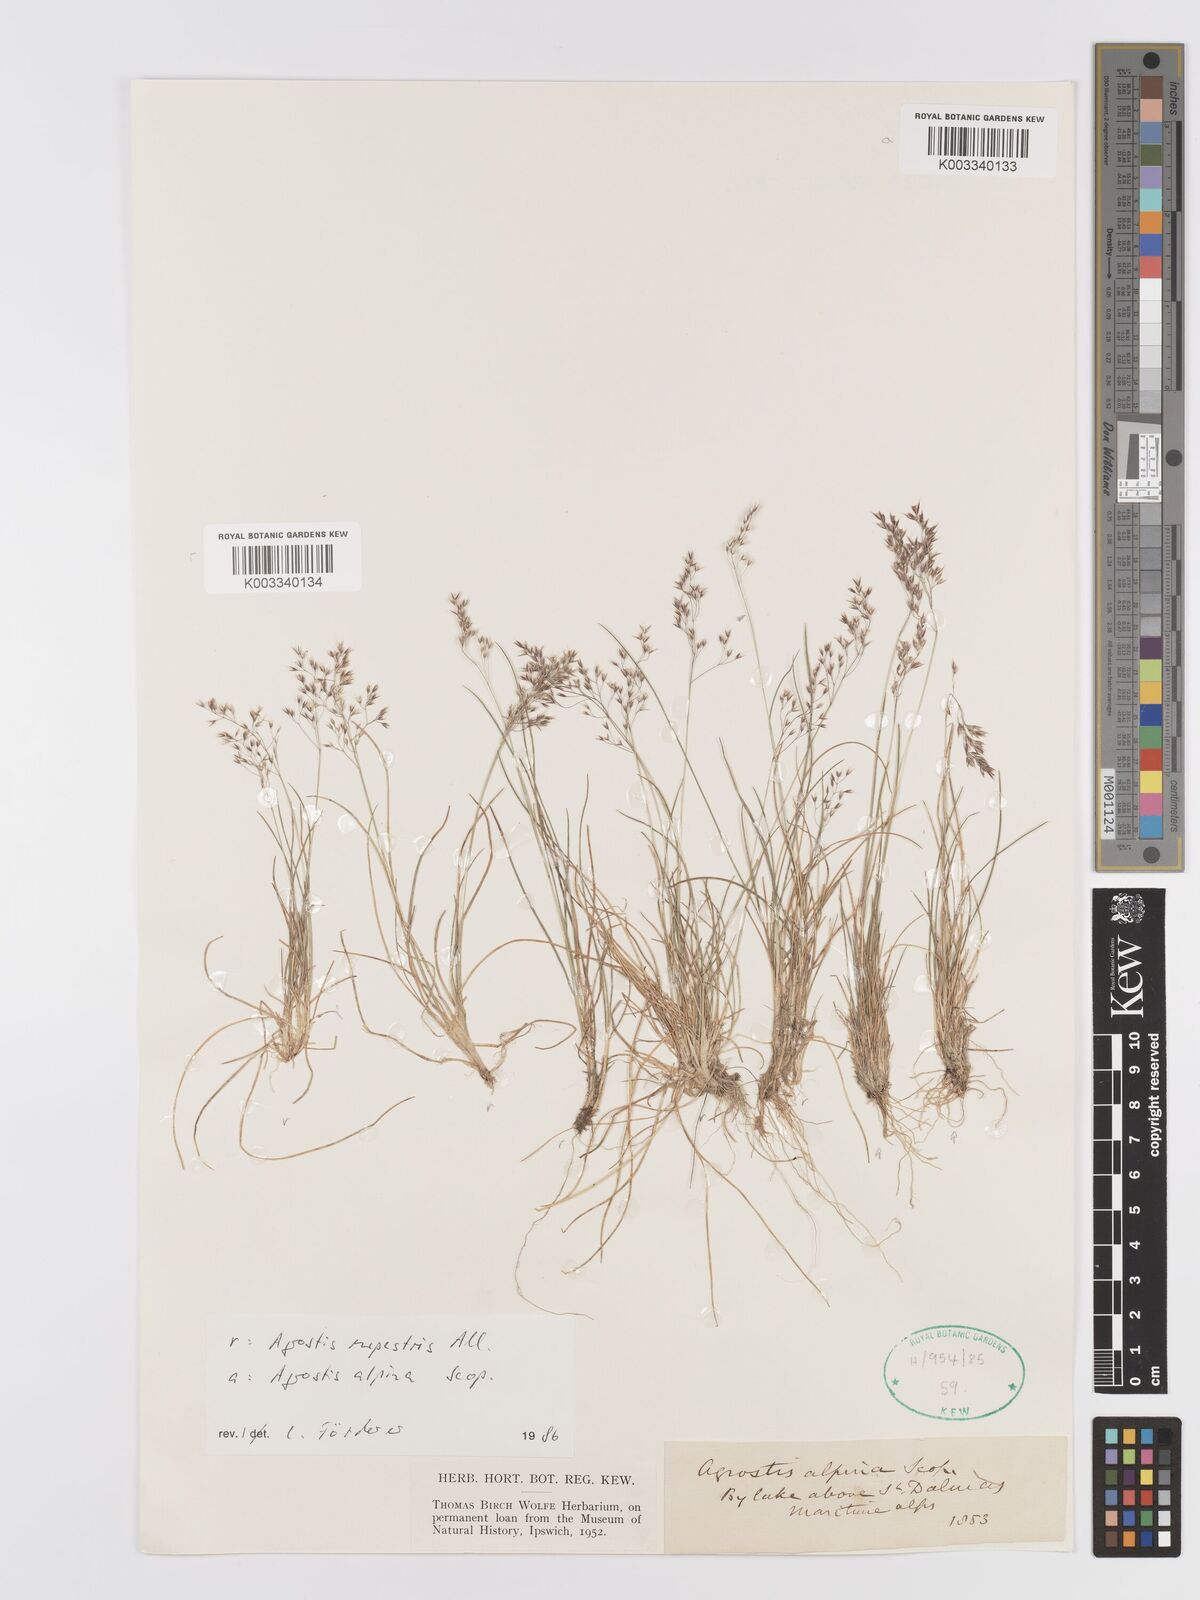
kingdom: Plantae
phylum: Tracheophyta
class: Liliopsida
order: Poales
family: Poaceae
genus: Agrostis
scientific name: Agrostis rupestris
